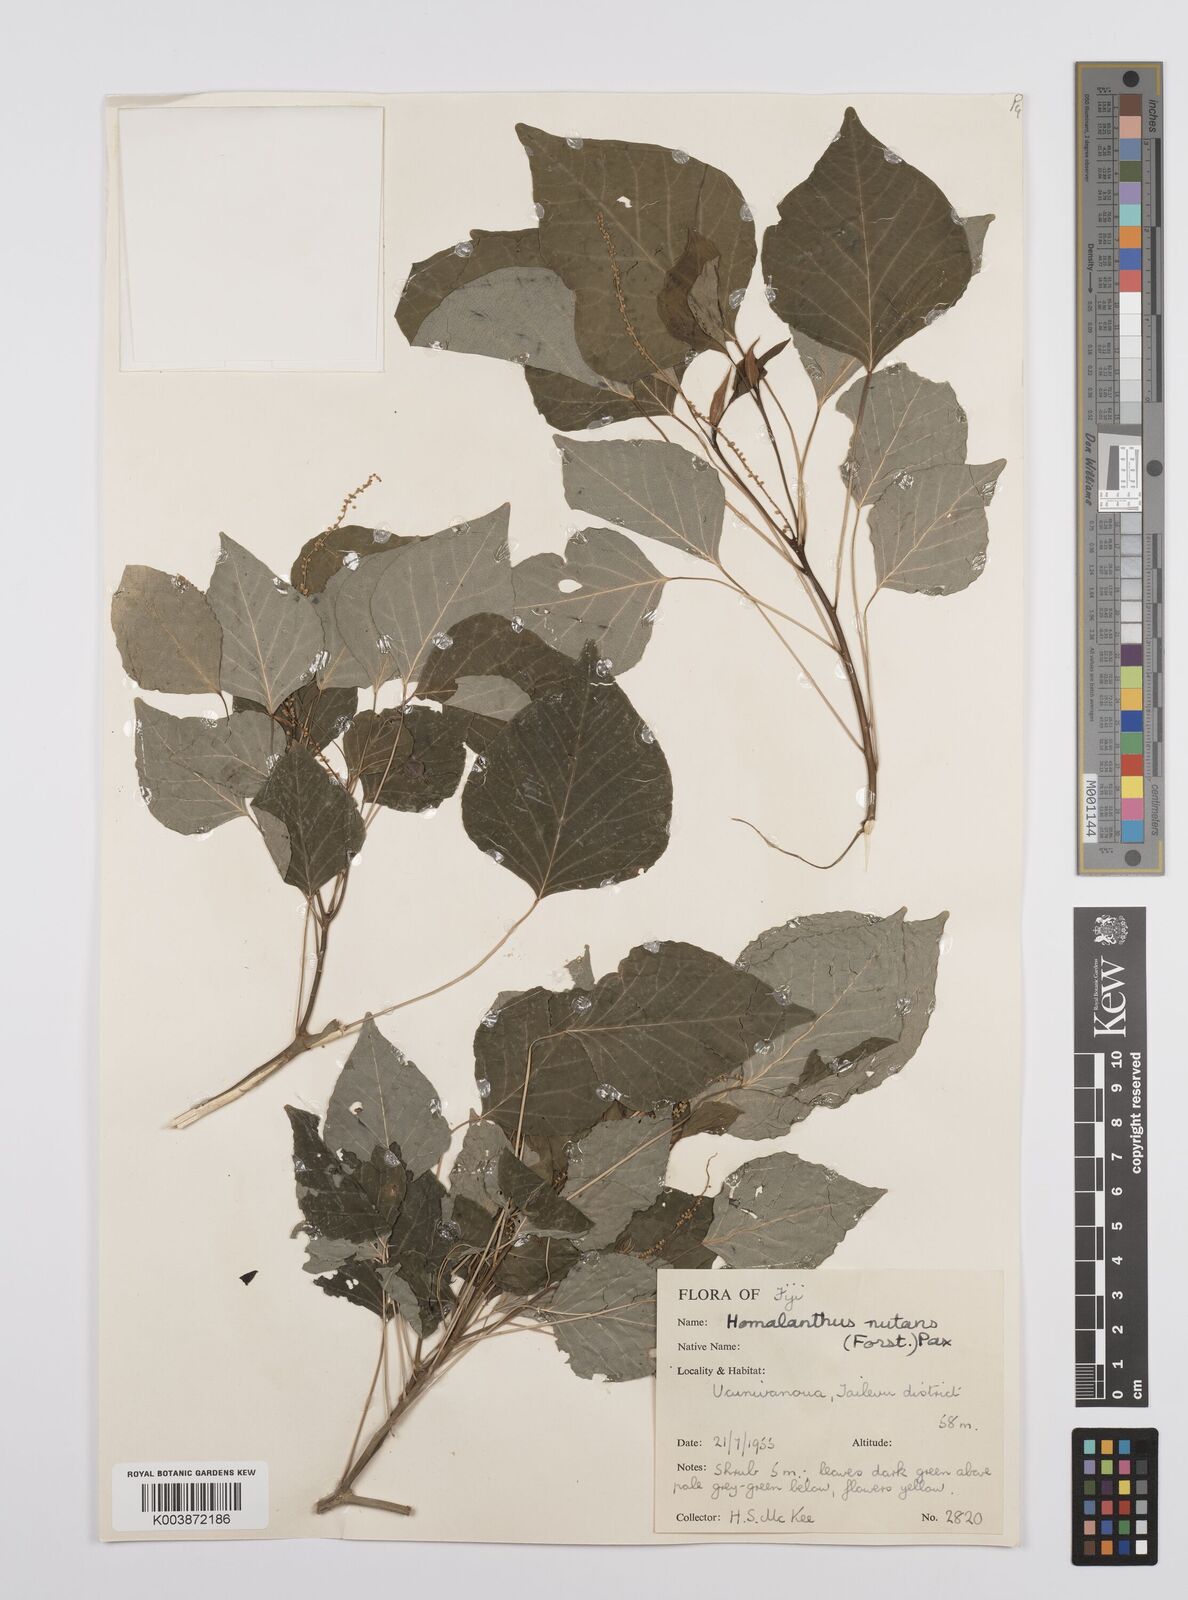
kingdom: Plantae
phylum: Tracheophyta
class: Magnoliopsida
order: Malpighiales
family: Euphorbiaceae
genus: Homalanthus
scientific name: Homalanthus nutans
